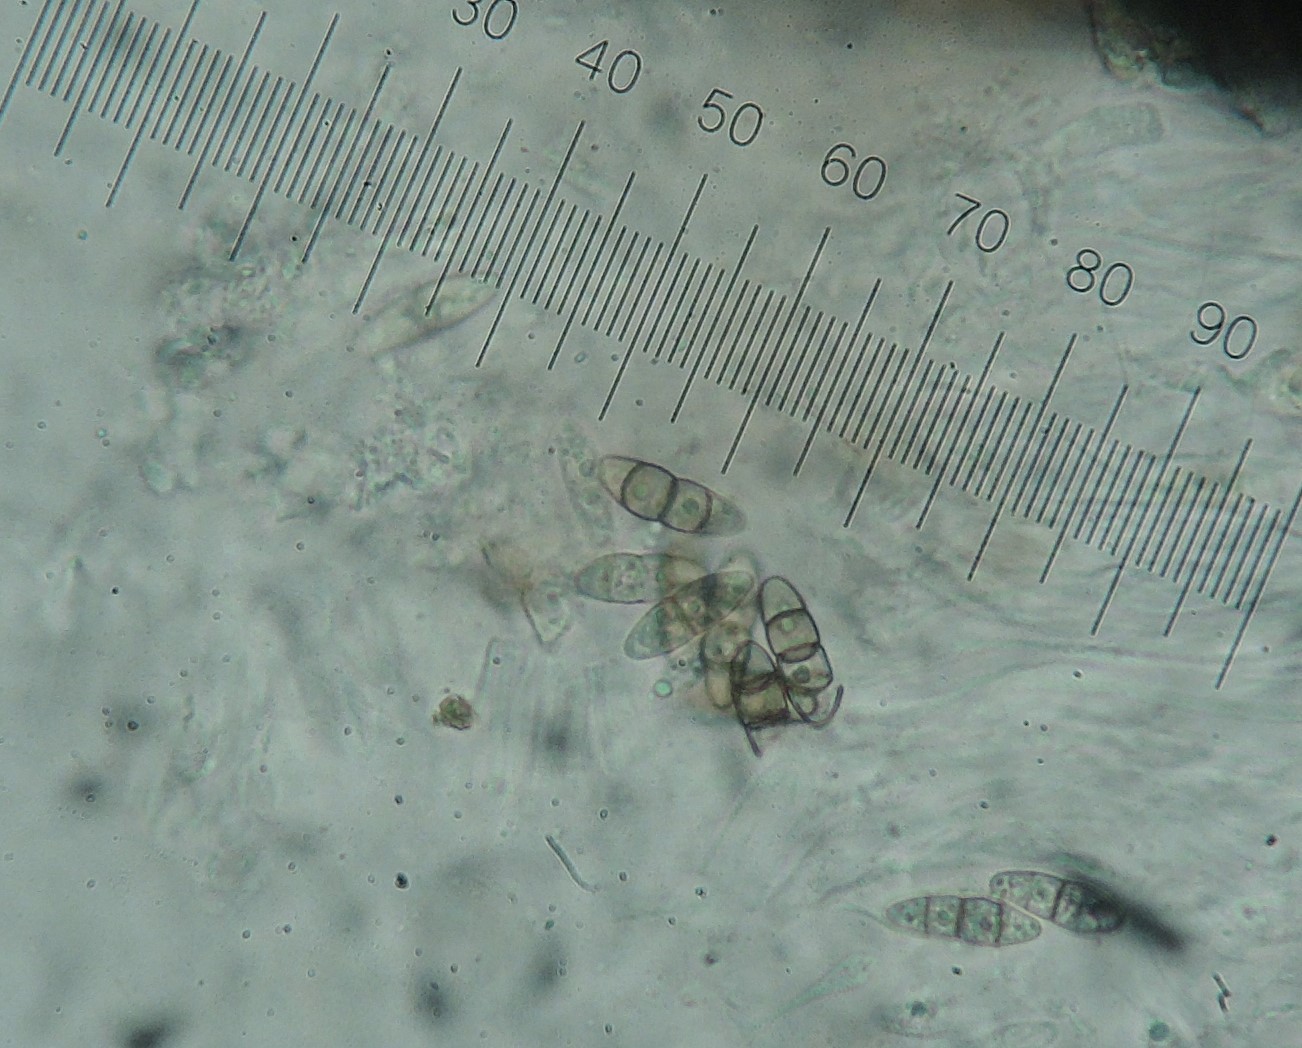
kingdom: Fungi
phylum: Ascomycota
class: Dothideomycetes
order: Pleosporales
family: Melanommataceae
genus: Melanomma
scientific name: Melanomma pulvis-pyrius
